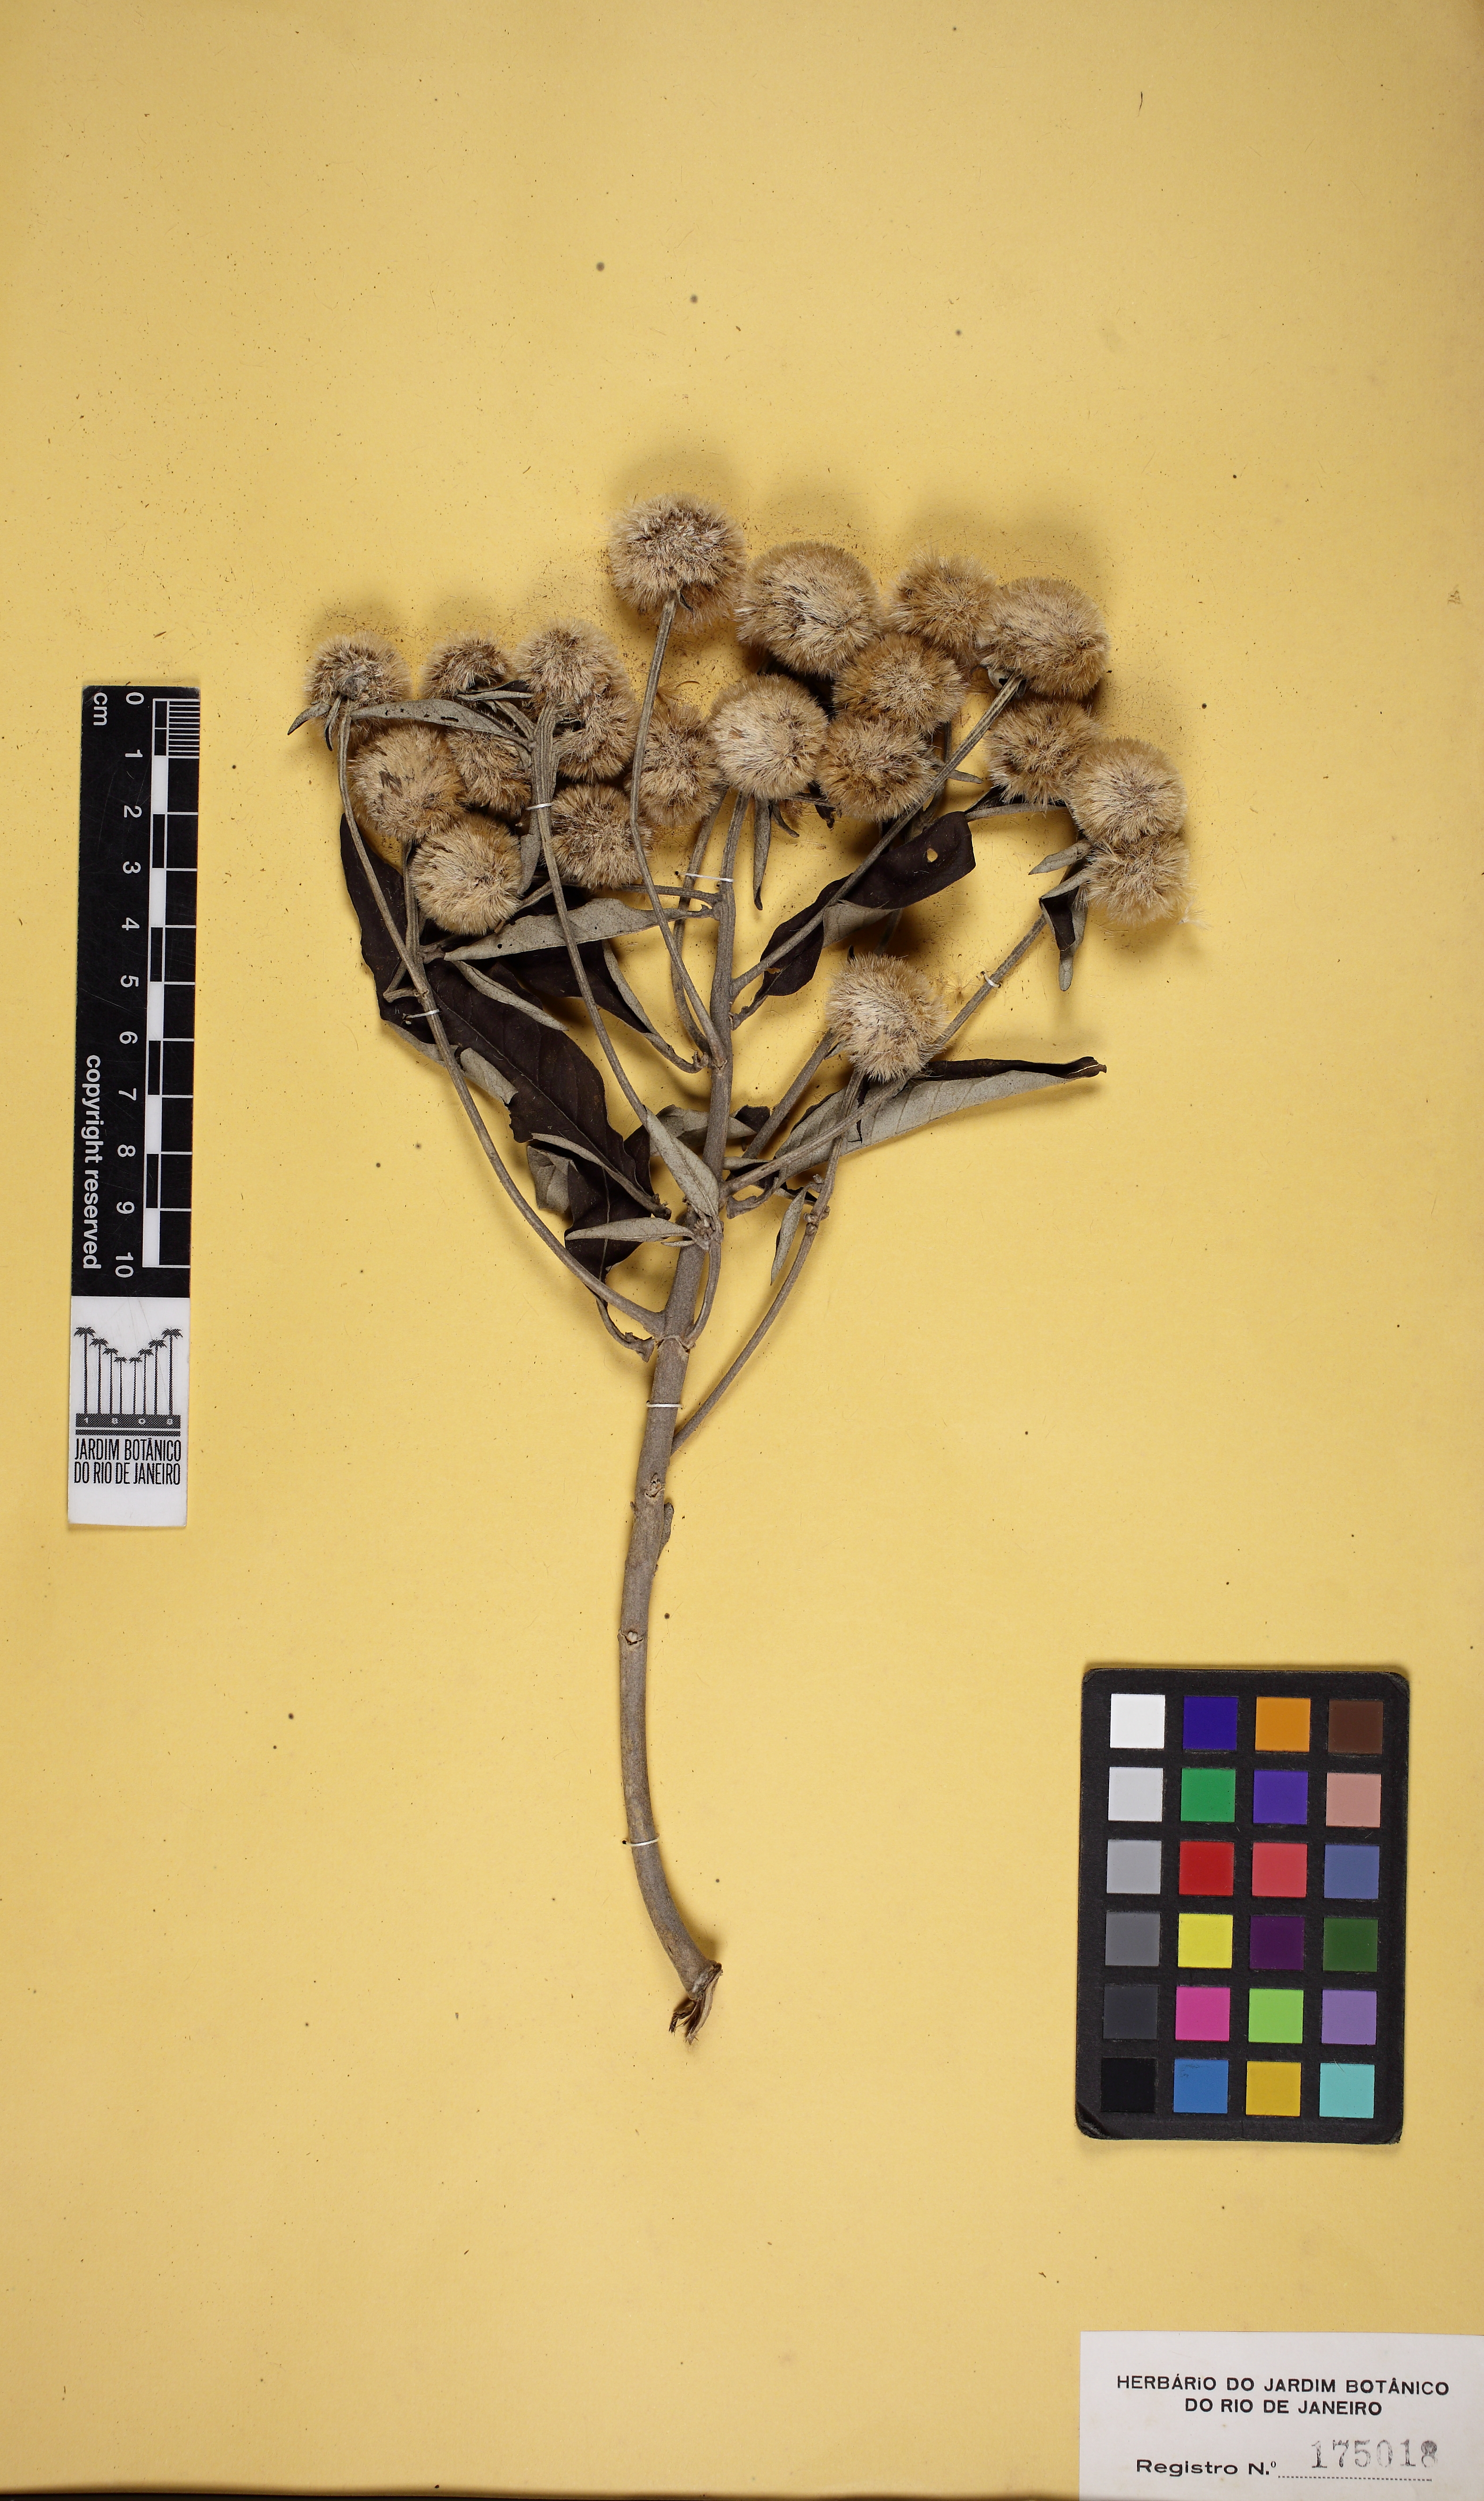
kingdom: Plantae
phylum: Tracheophyta
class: Magnoliopsida
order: Asterales
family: Asteraceae
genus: Eremanthus
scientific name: Eremanthus incanus
